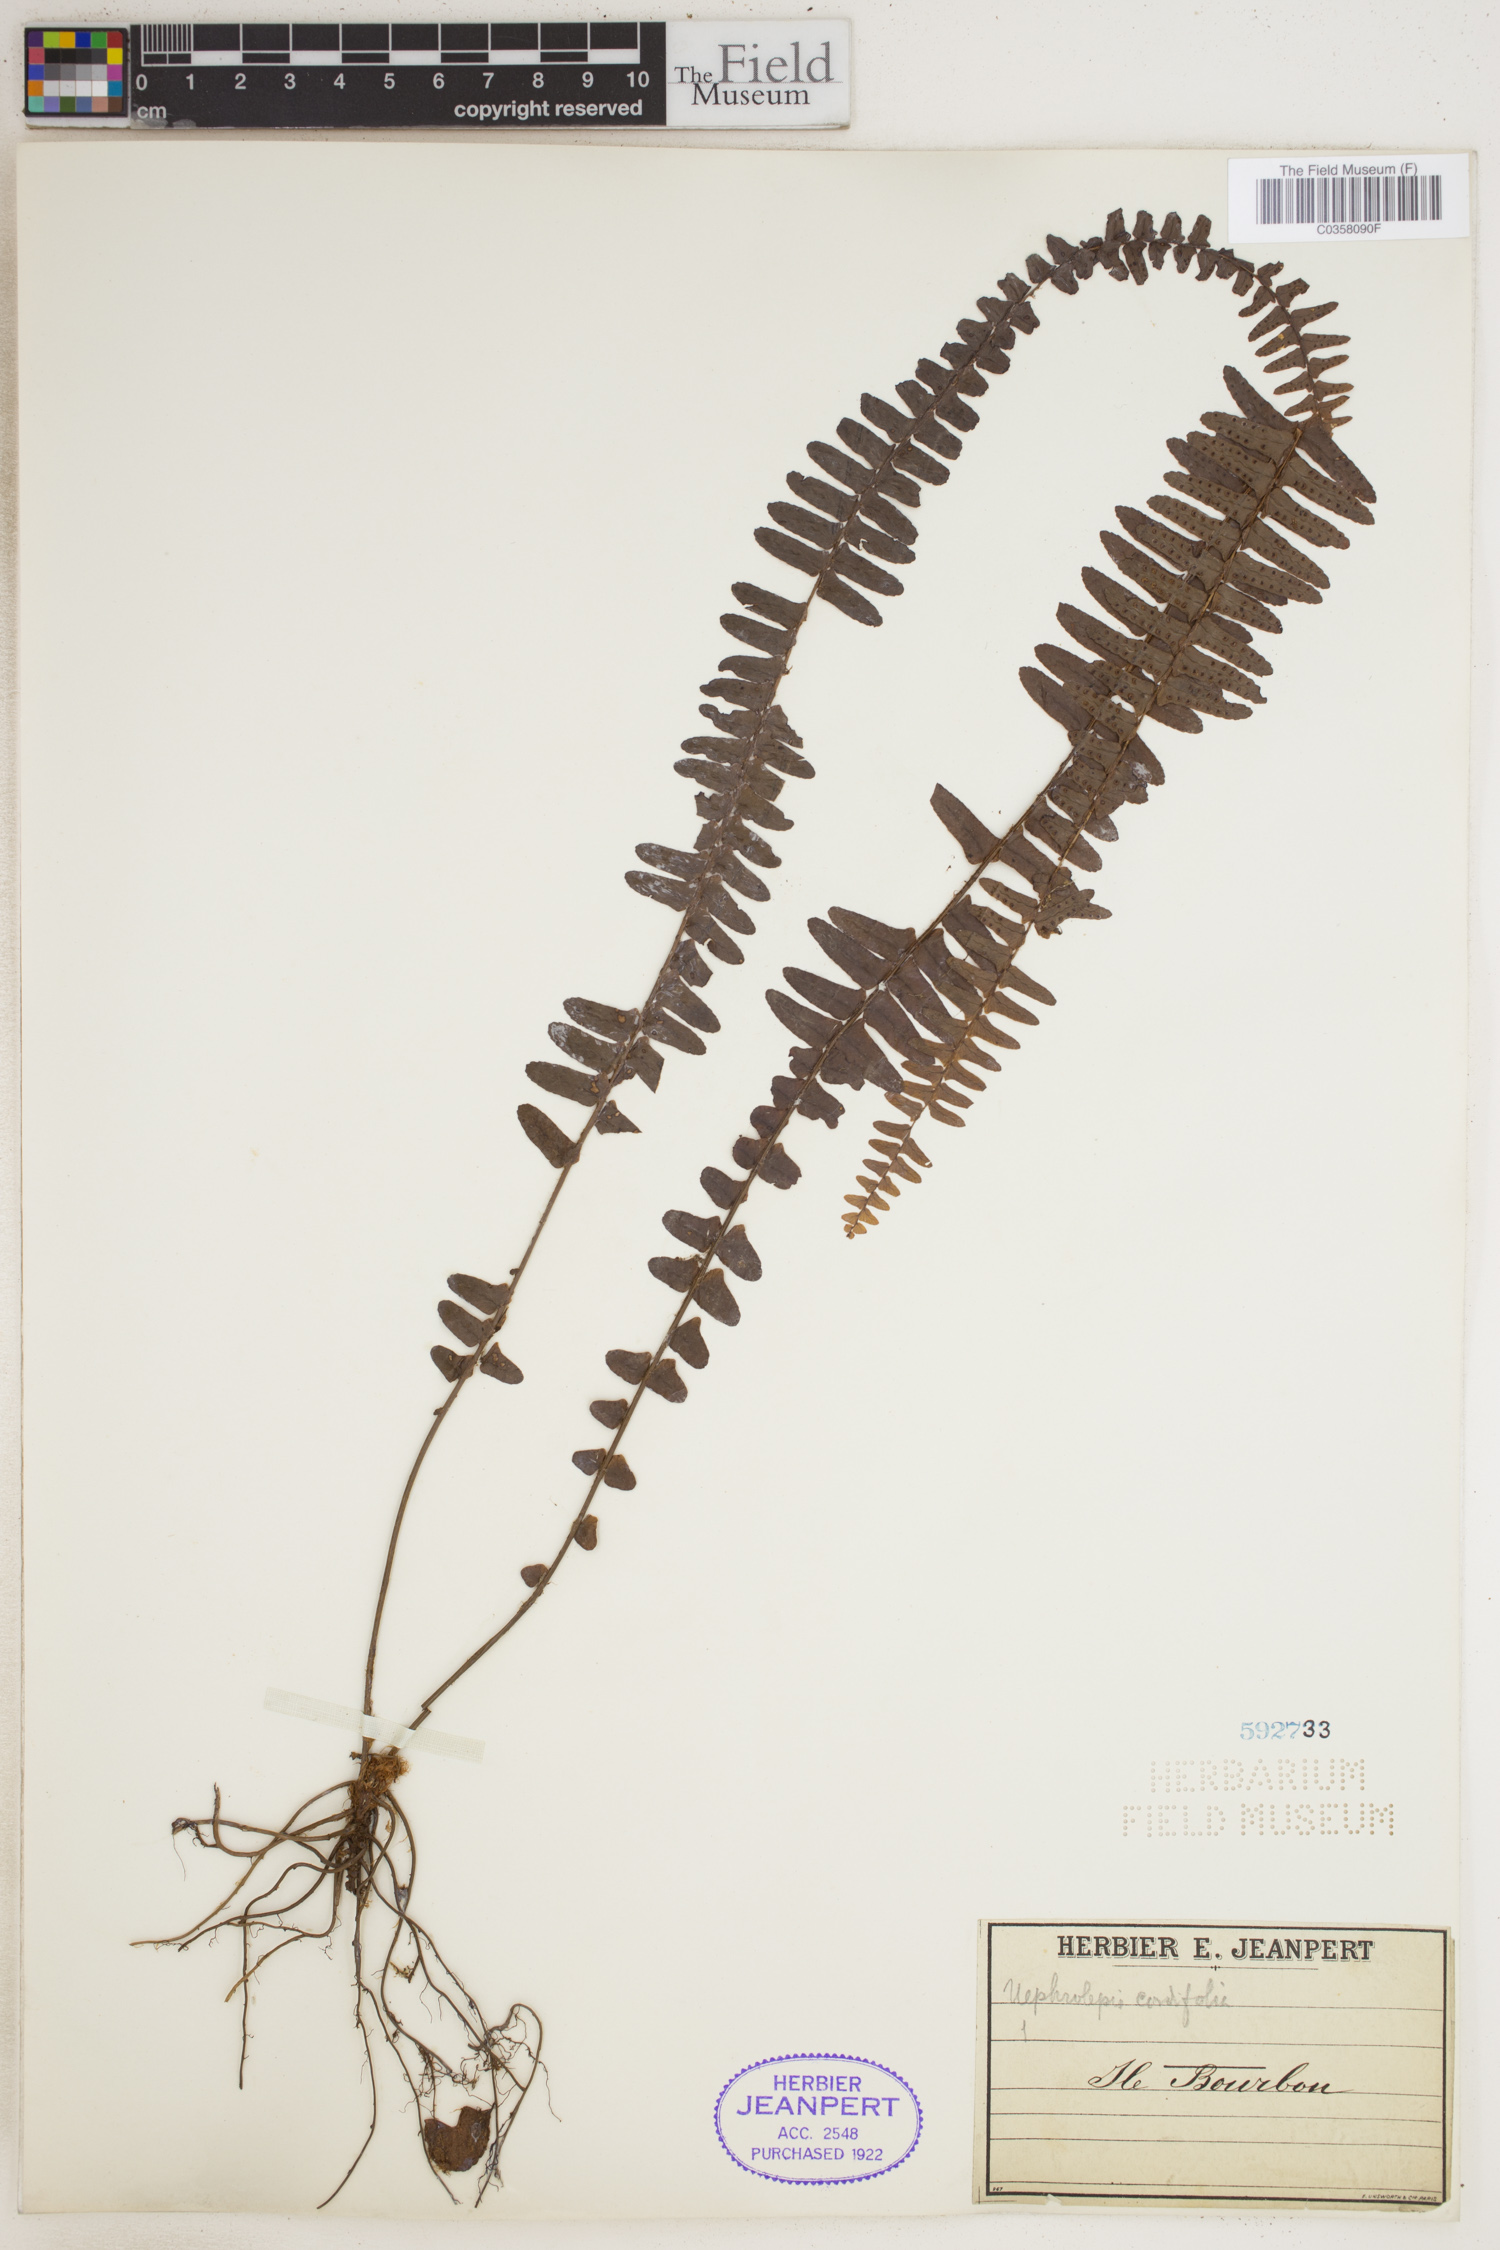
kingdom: Plantae
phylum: Tracheophyta
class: Polypodiopsida
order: Polypodiales
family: Nephrolepidaceae
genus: Nephrolepis
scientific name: Nephrolepis biserrata
